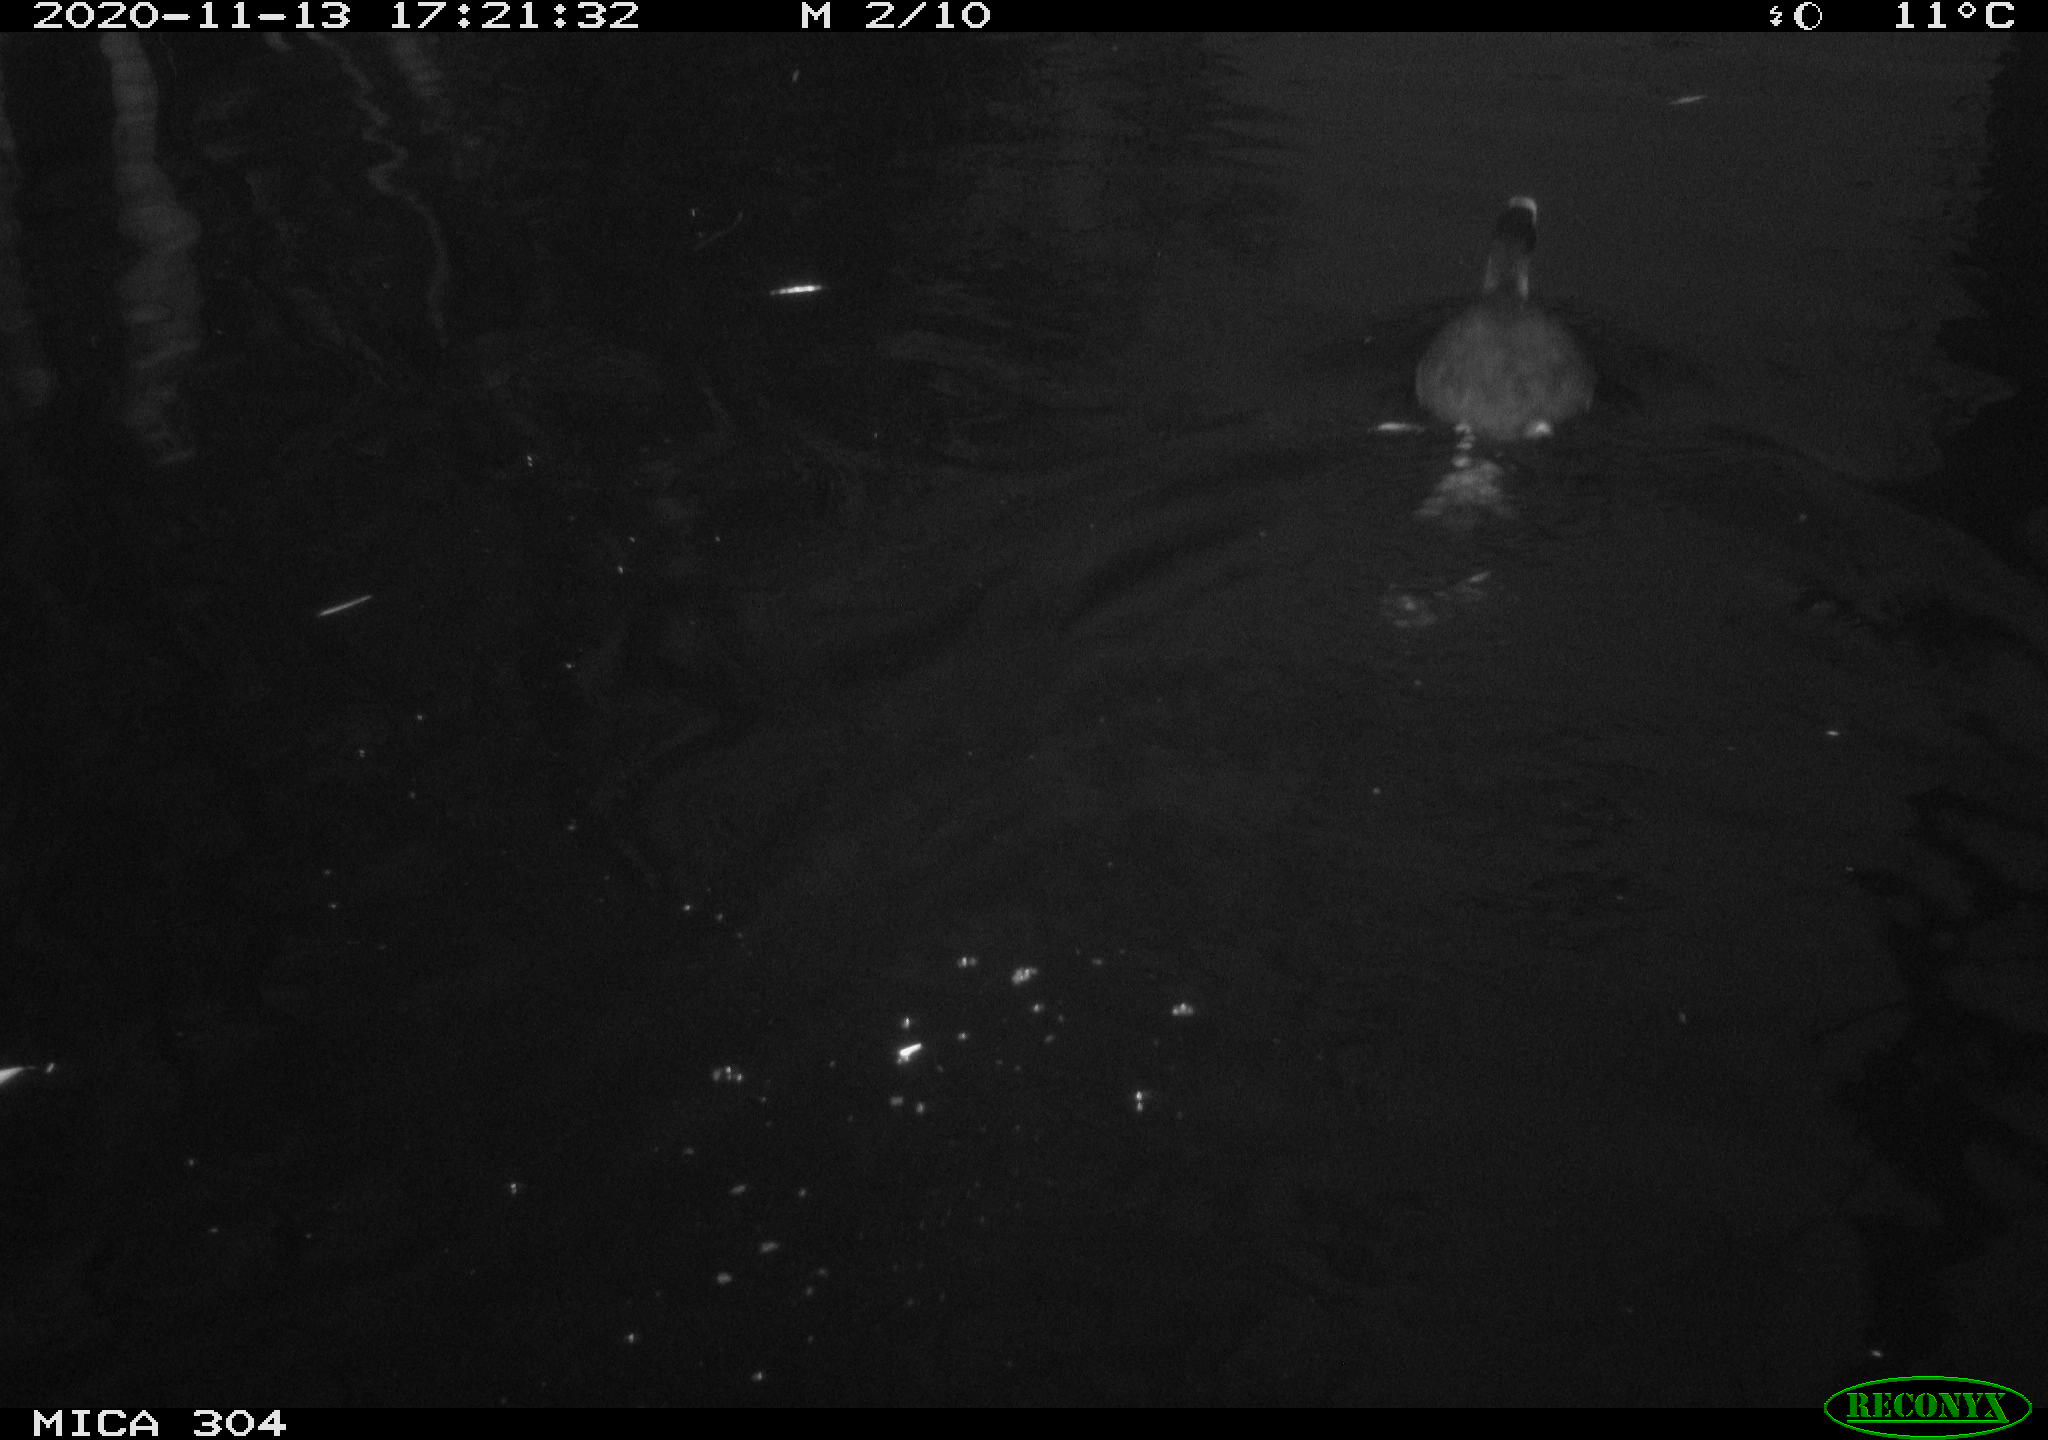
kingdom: Animalia
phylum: Chordata
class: Aves
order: Gruiformes
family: Rallidae
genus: Fulica
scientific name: Fulica atra
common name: Eurasian coot
